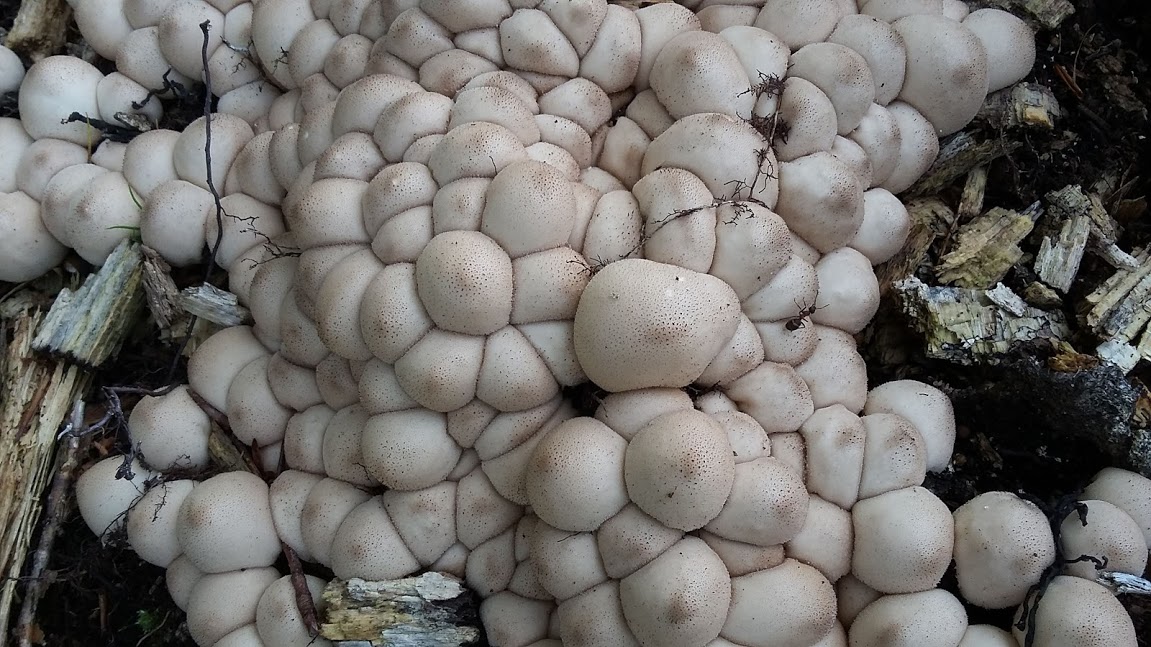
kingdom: Fungi
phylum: Basidiomycota
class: Agaricomycetes
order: Agaricales
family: Lycoperdaceae
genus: Apioperdon
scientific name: Apioperdon pyriforme
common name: pære-støvbold
